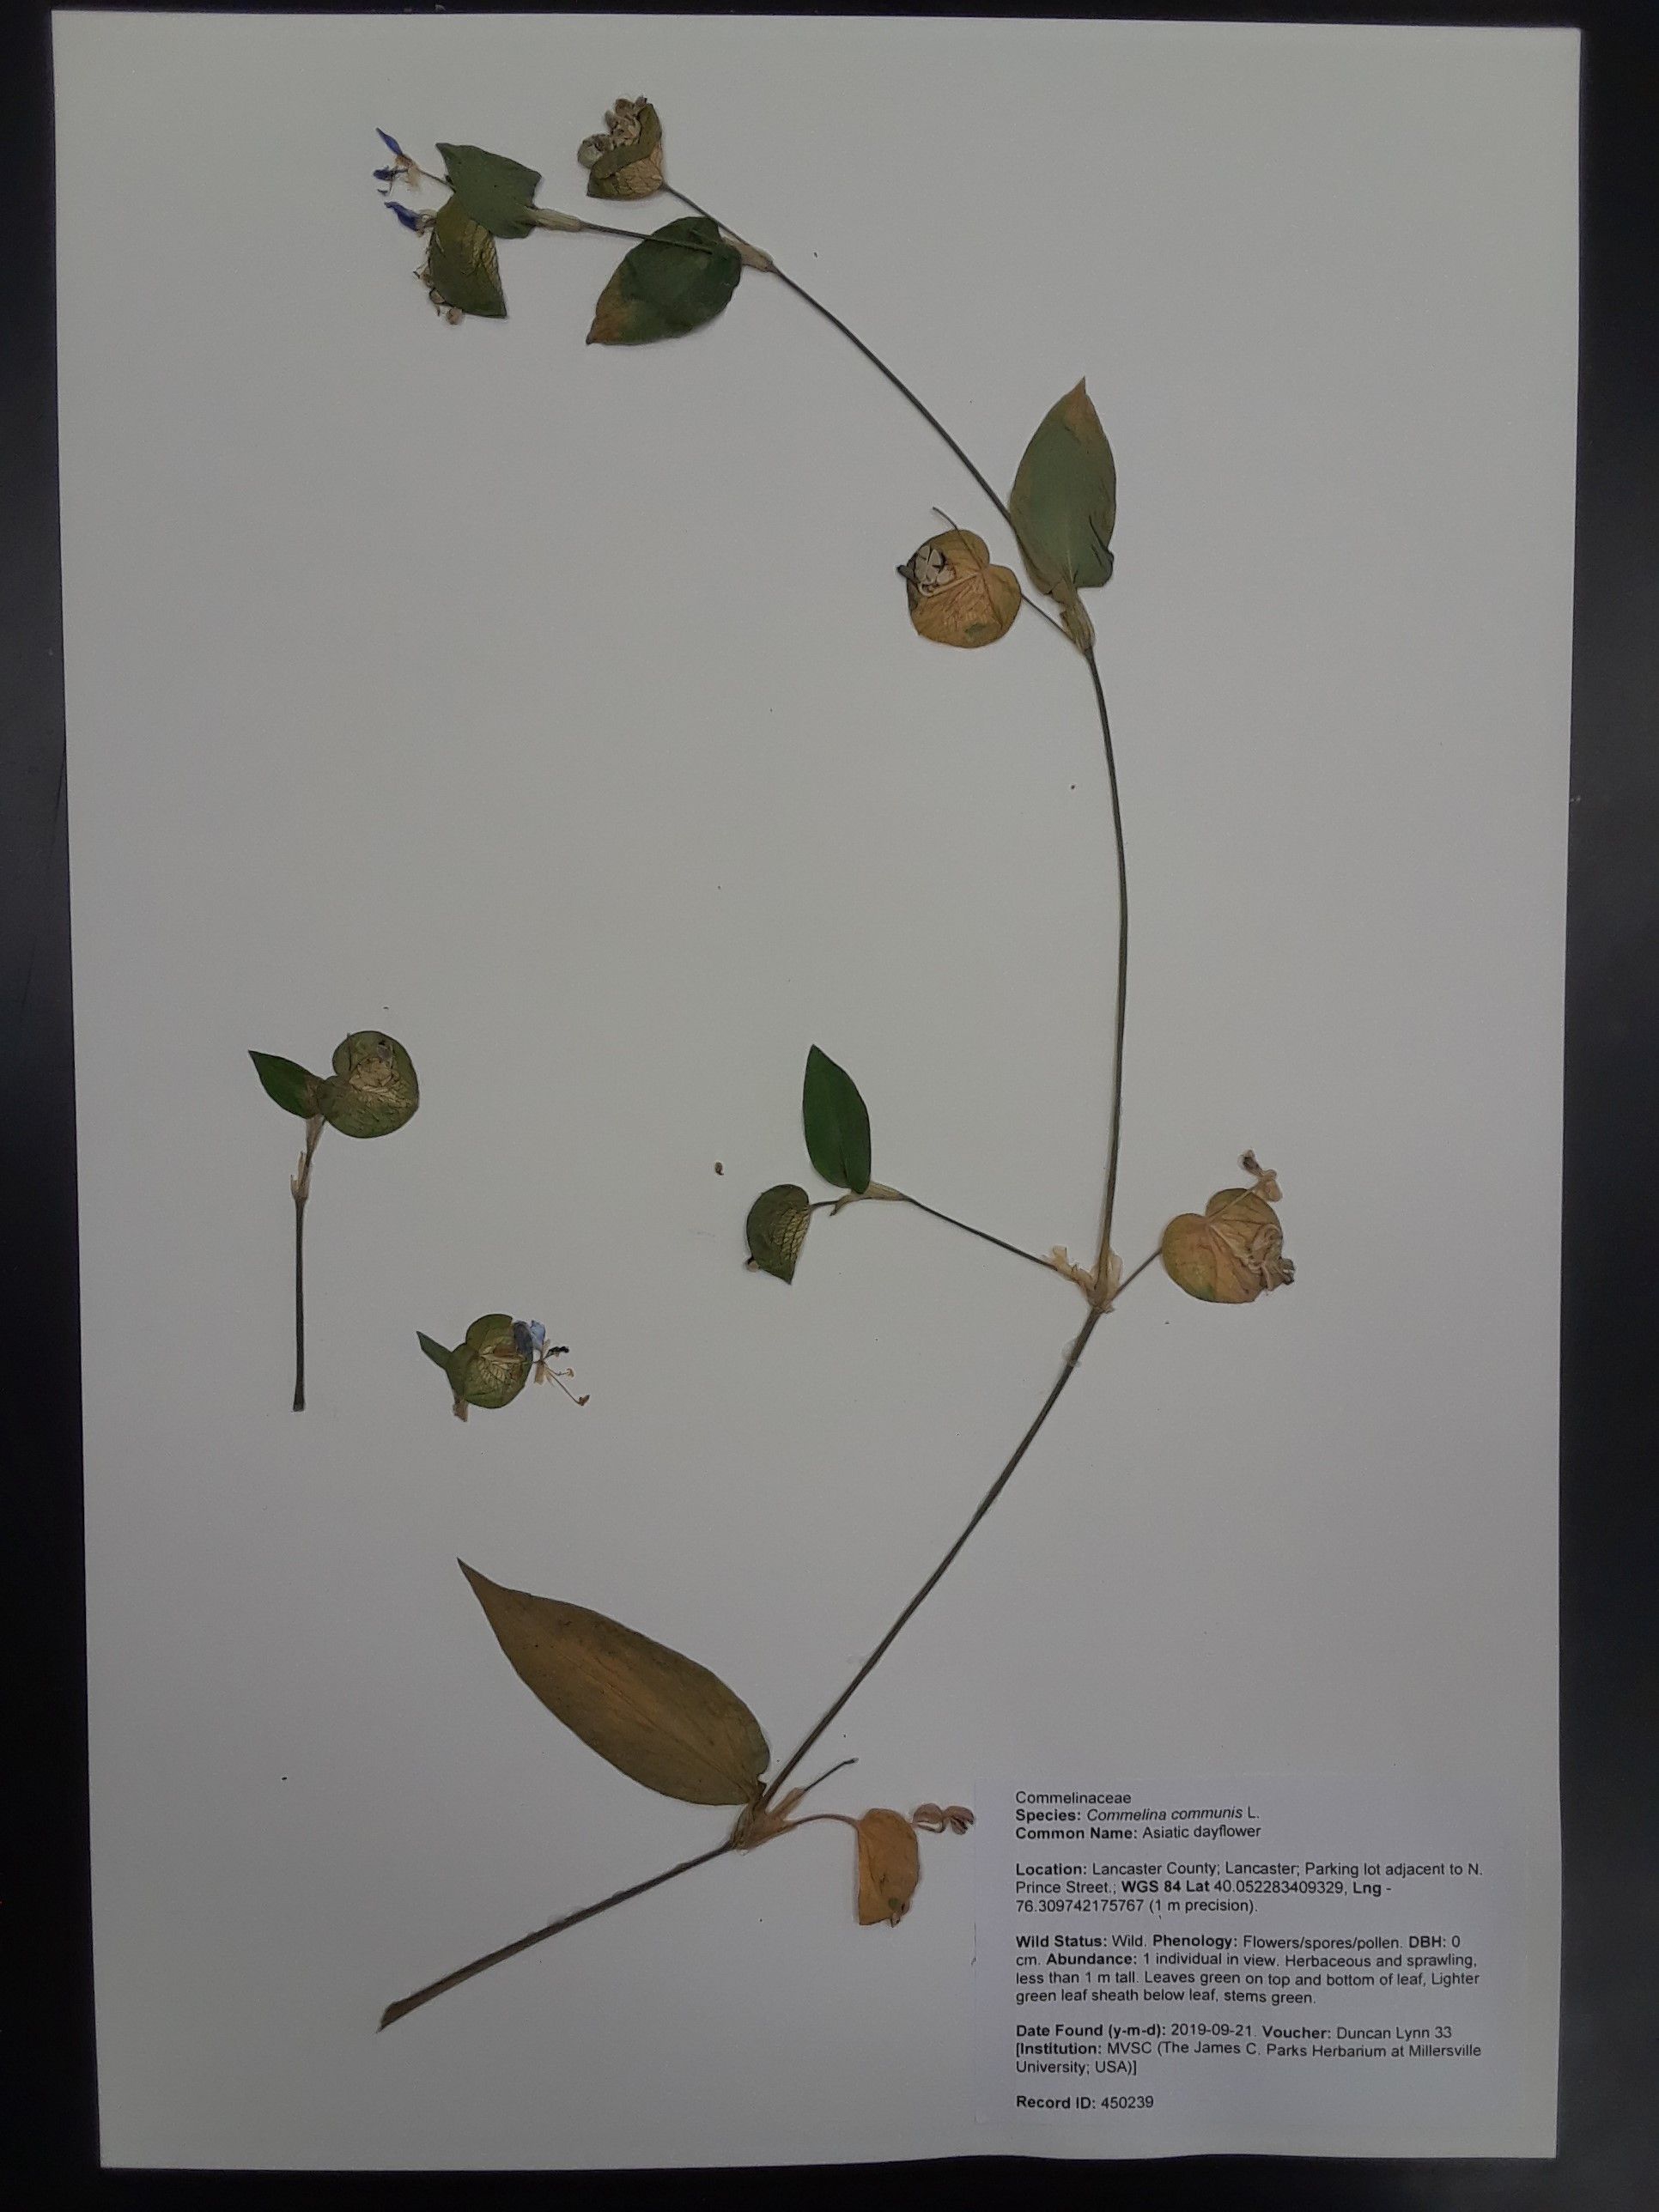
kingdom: Plantae
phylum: Tracheophyta
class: Liliopsida
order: Commelinales
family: Commelinaceae
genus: Commelina
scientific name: Commelina communis
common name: Asiatic dayflower
